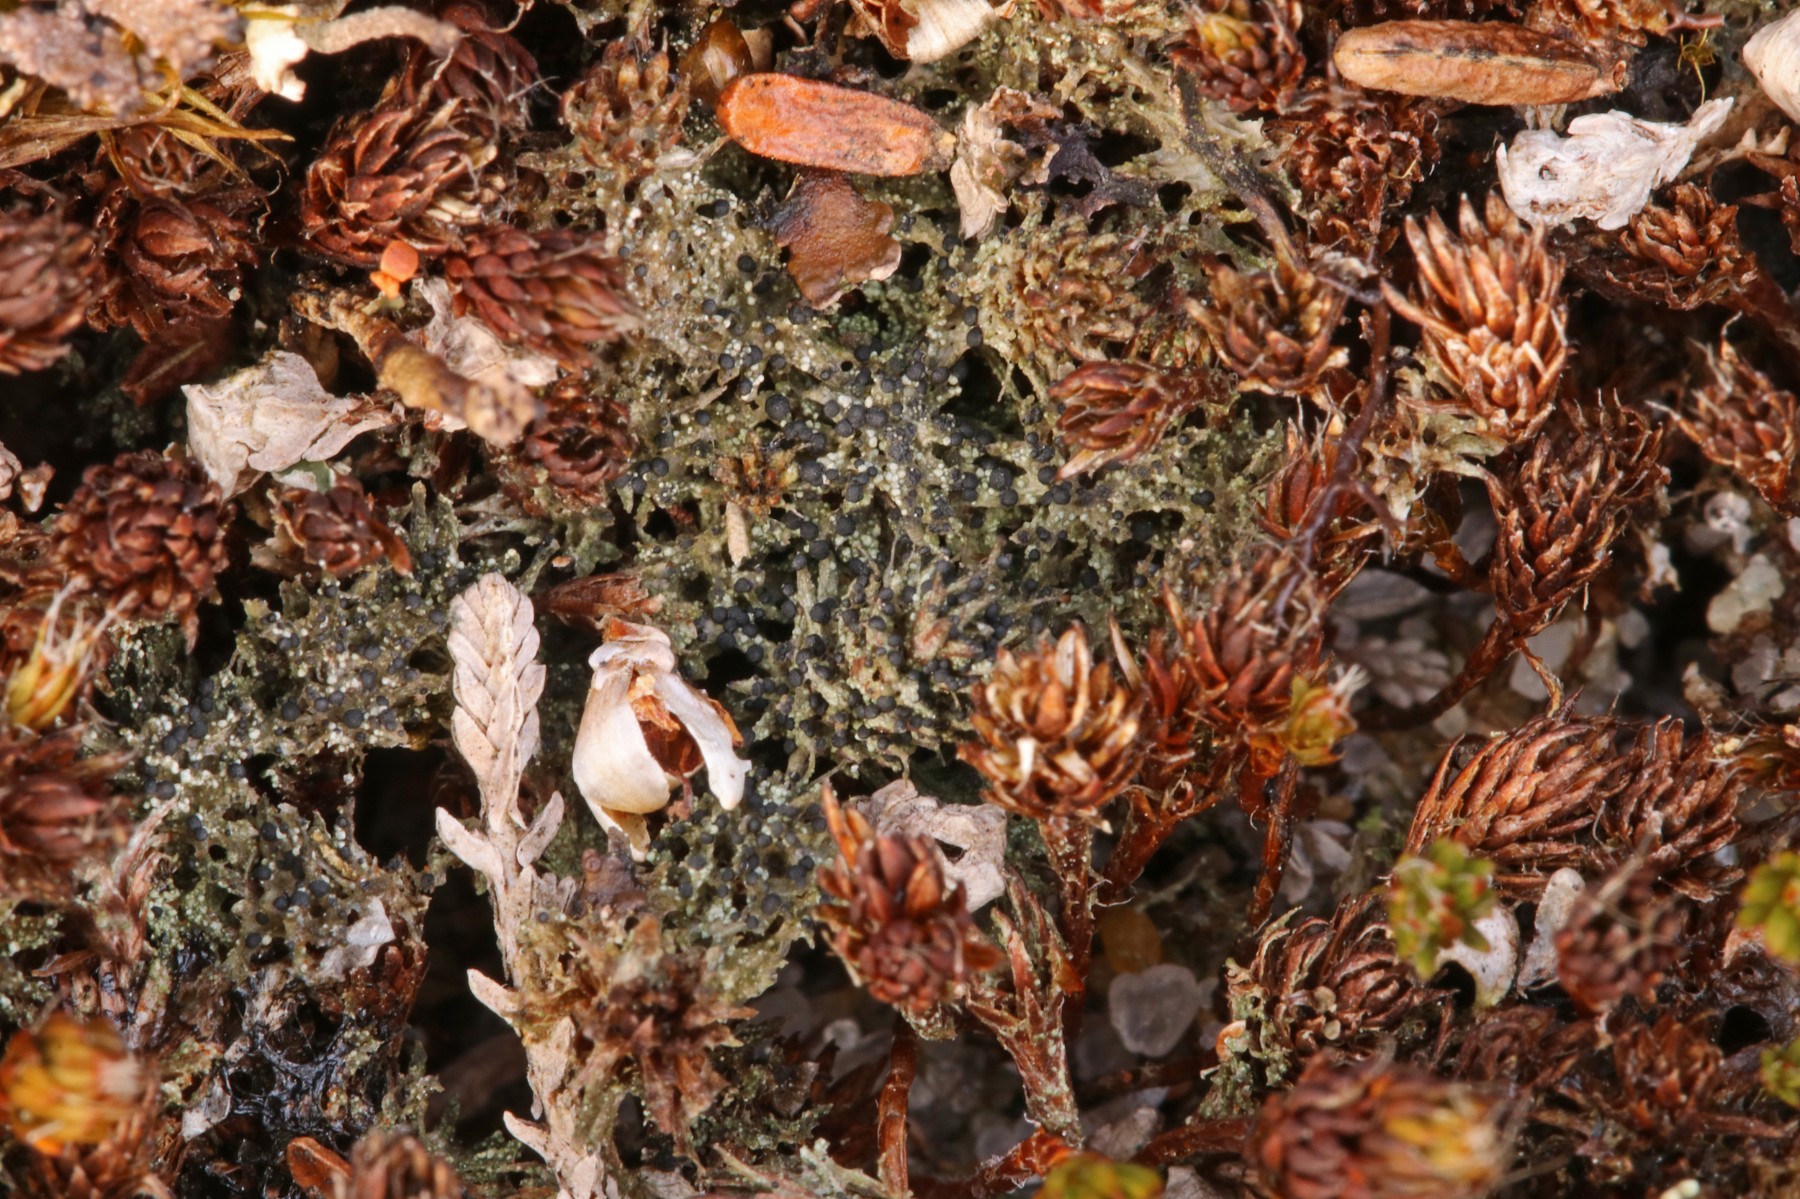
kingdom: Fungi
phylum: Ascomycota
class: Lecanoromycetes
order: Lecanorales
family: Byssolomataceae
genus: Micarea
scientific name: Micarea lignaria
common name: tørve-knaplav
